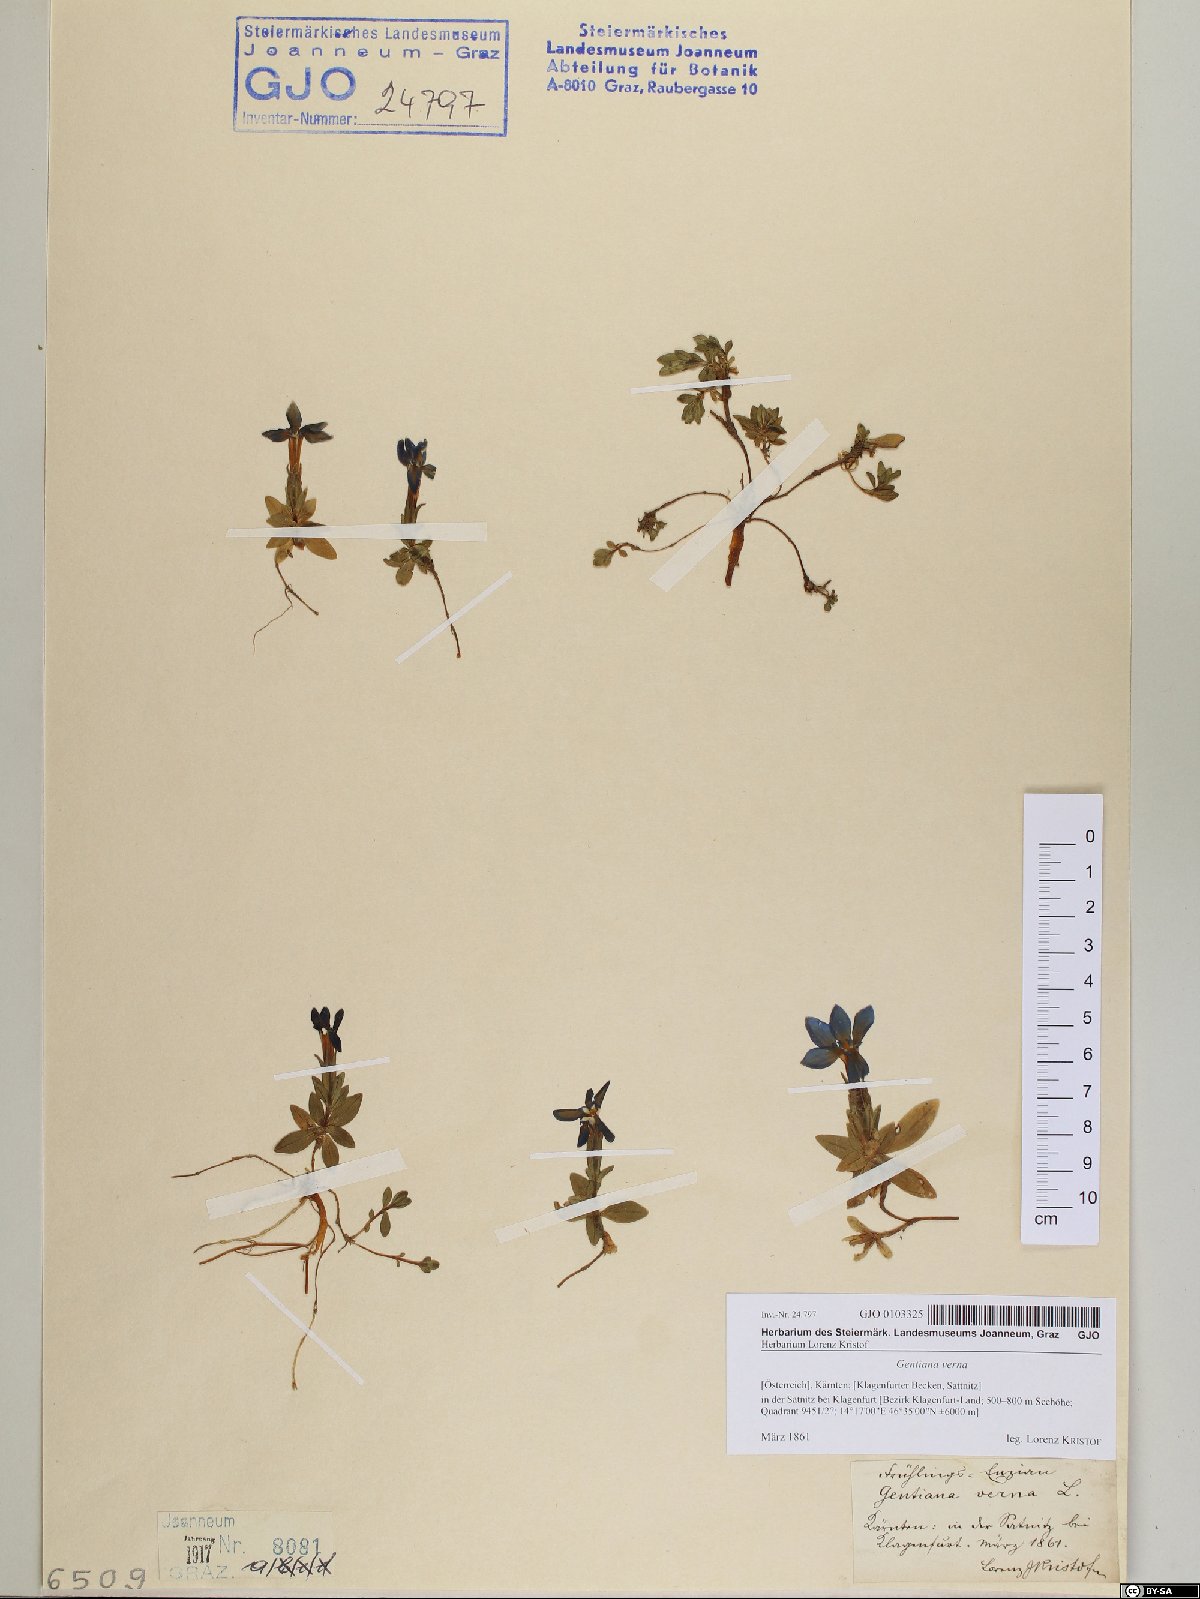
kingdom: Plantae
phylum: Tracheophyta
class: Magnoliopsida
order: Gentianales
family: Gentianaceae
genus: Gentiana
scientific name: Gentiana verna
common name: Spring gentian
